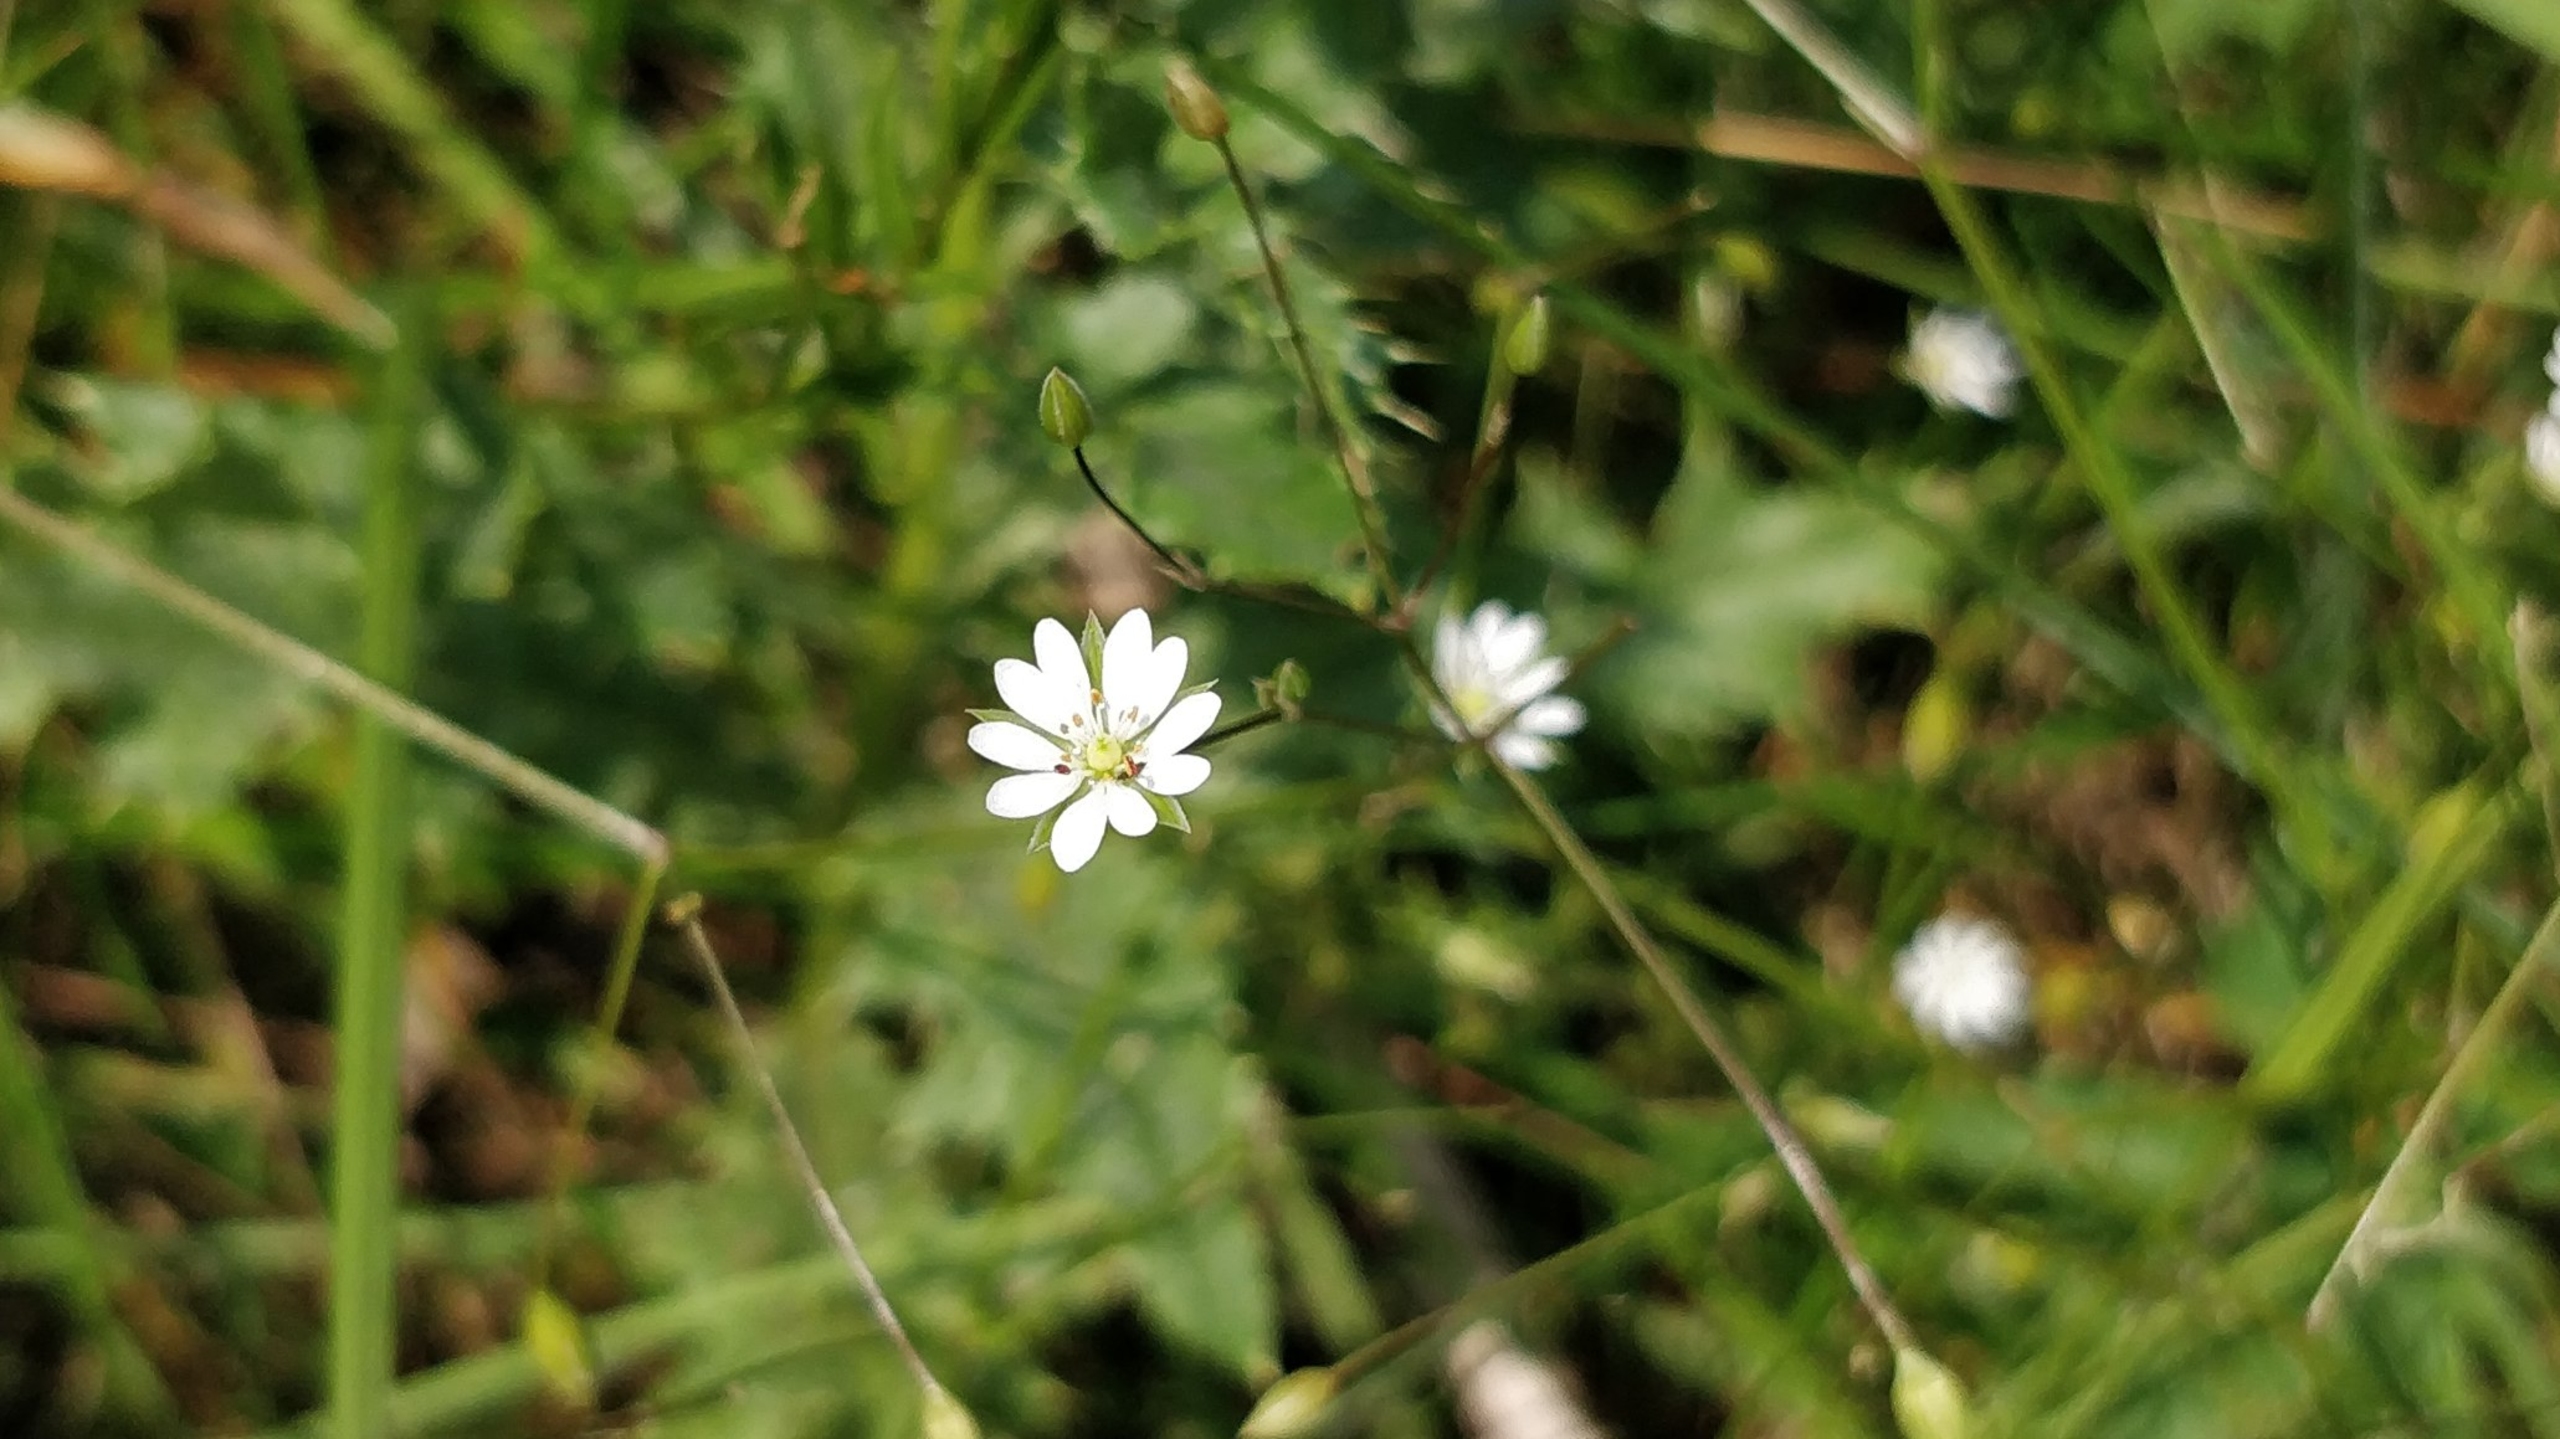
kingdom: Plantae
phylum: Tracheophyta
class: Magnoliopsida
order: Caryophyllales
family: Caryophyllaceae
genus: Stellaria
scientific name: Stellaria graminea
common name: Græsbladet fladstjerne
